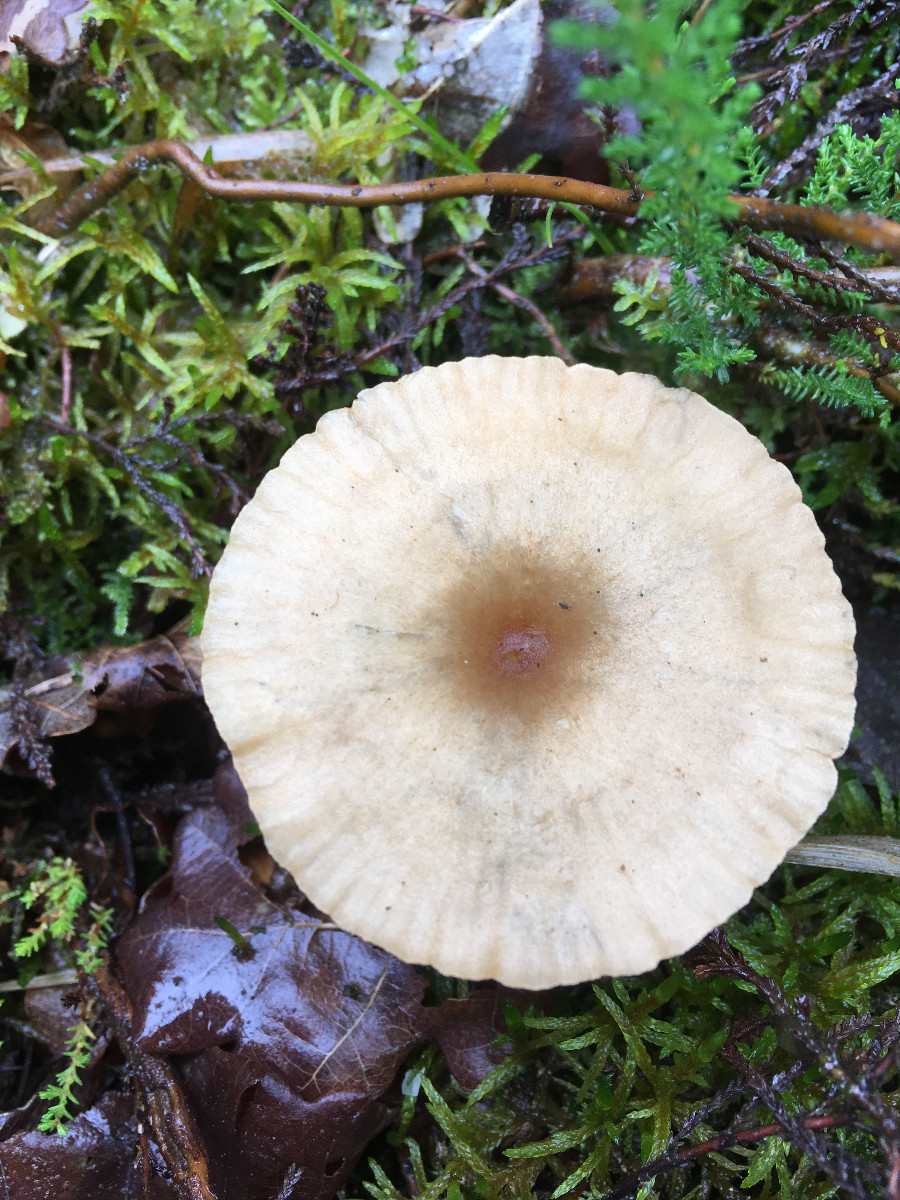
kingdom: Fungi
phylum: Basidiomycota
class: Agaricomycetes
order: Agaricales
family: Tricholomataceae
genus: Infundibulicybe
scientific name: Infundibulicybe
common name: tragthat
